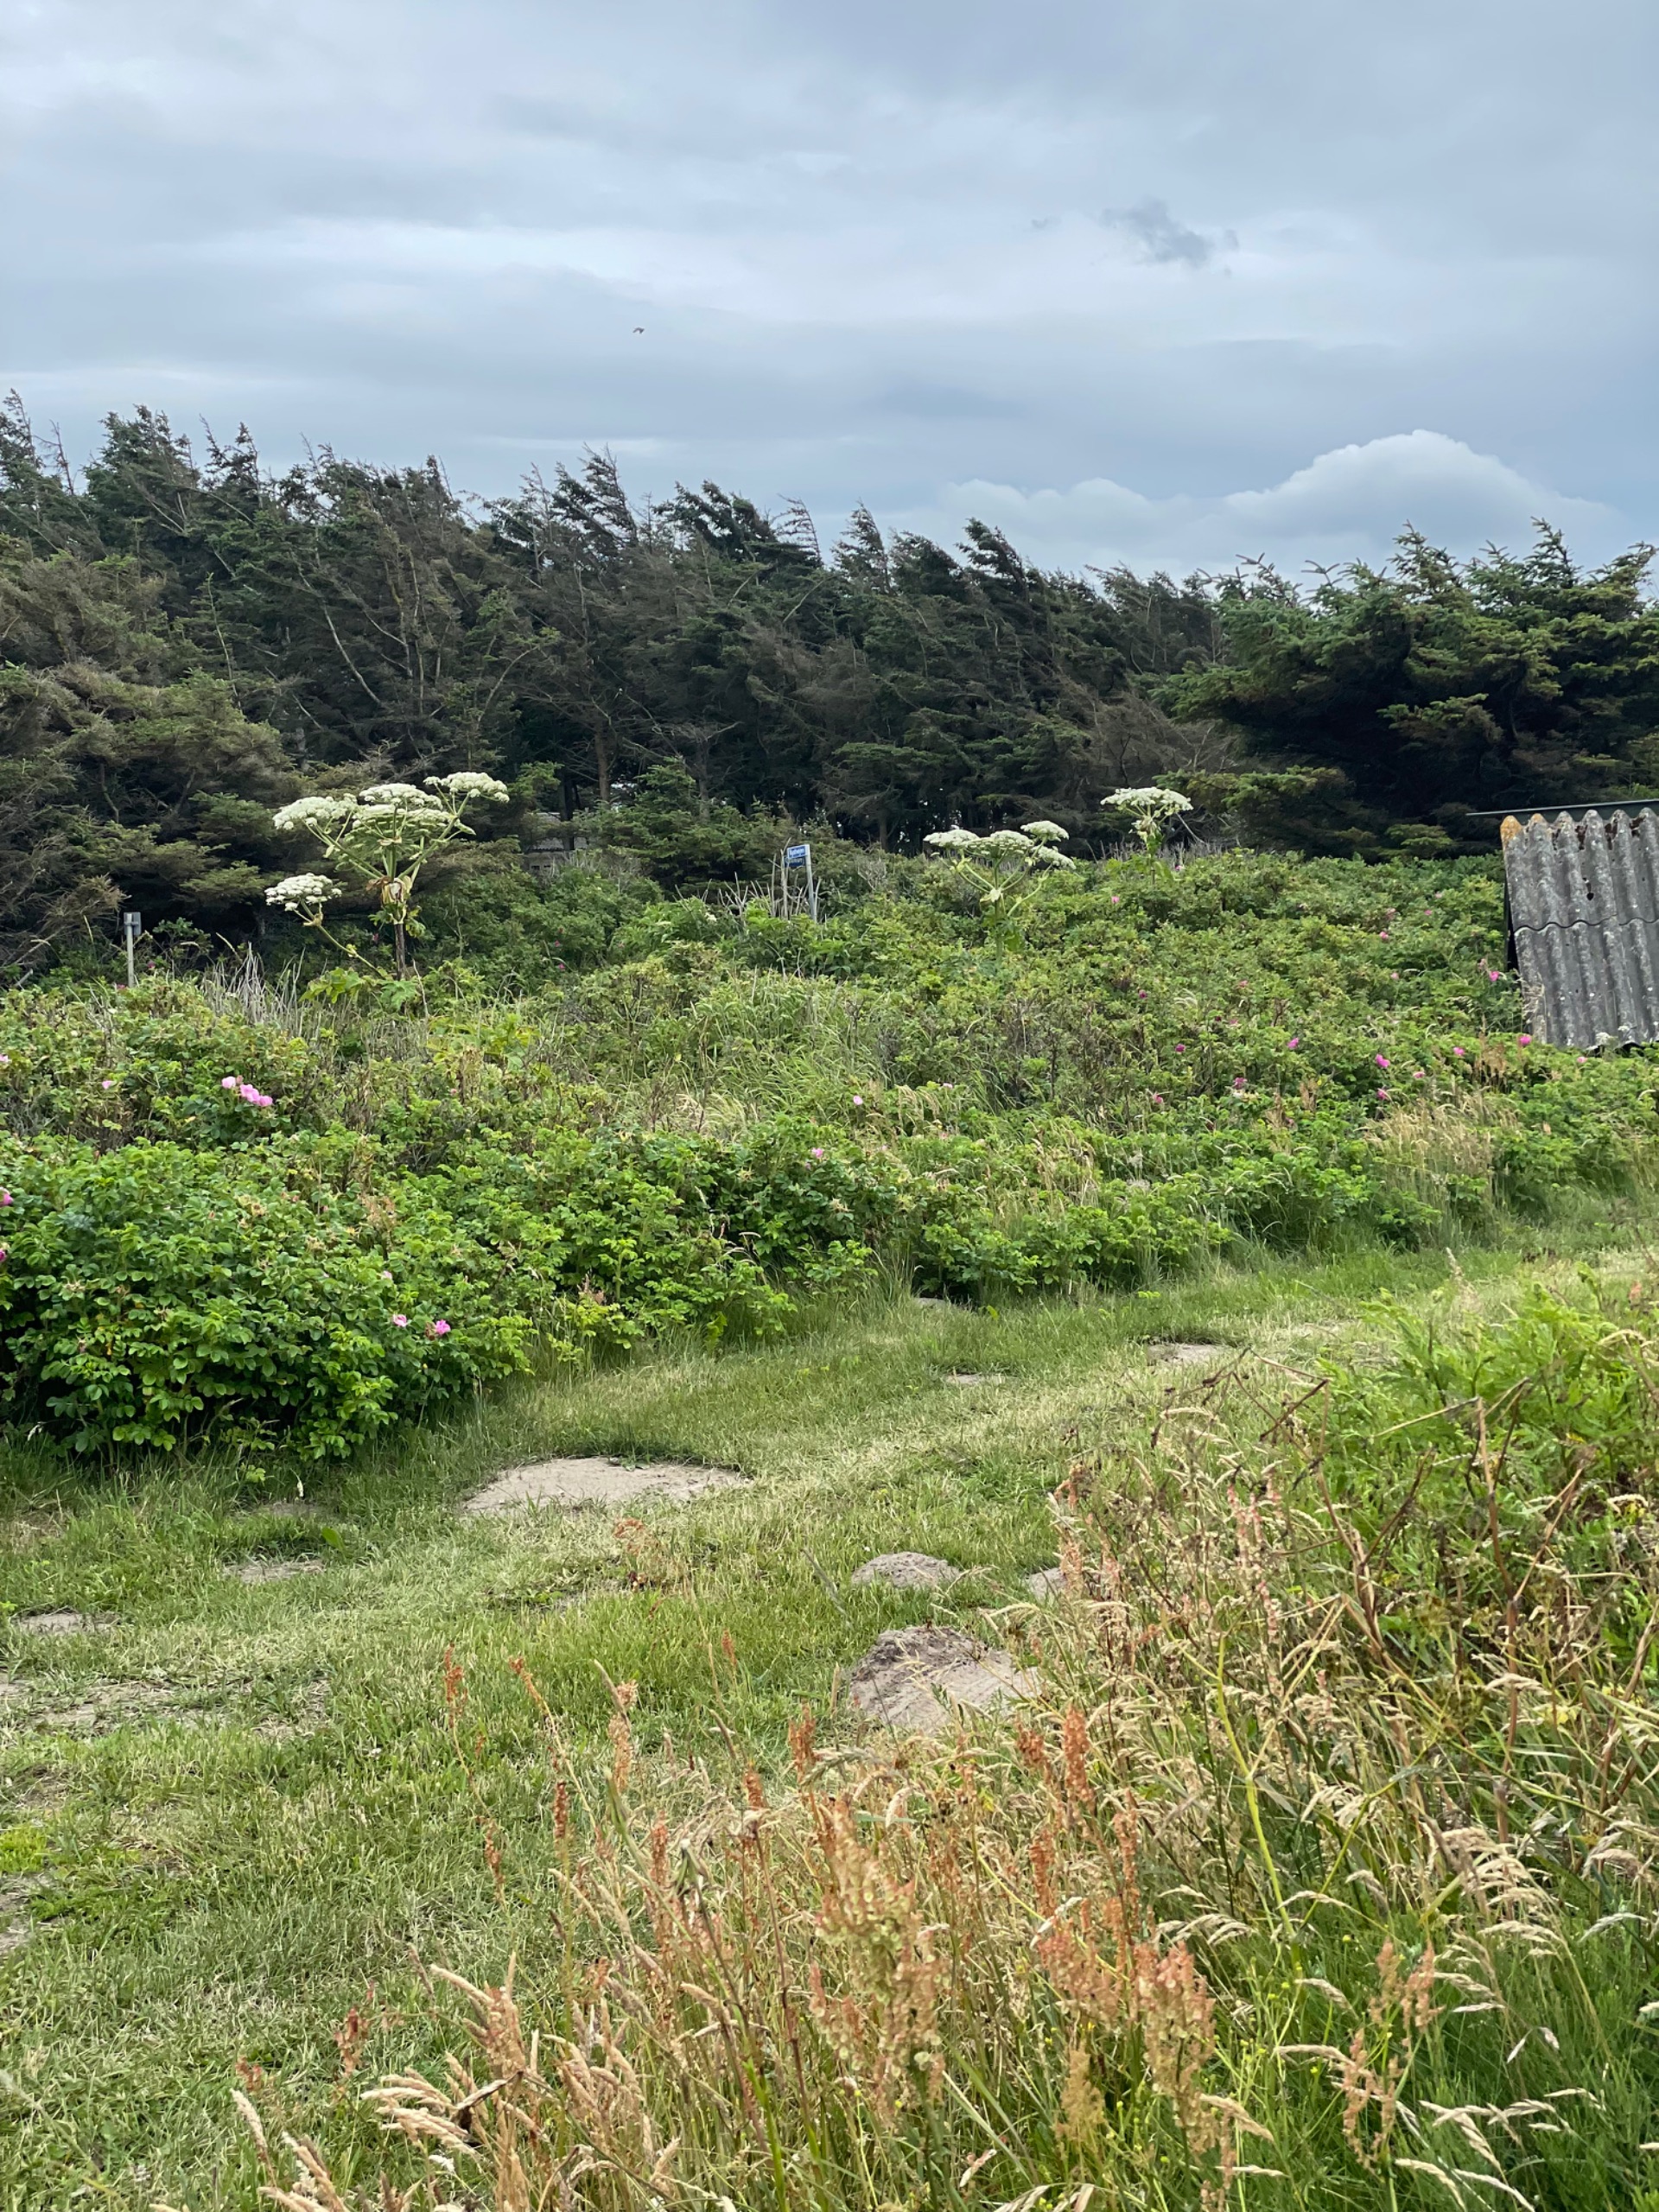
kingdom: Plantae
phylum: Tracheophyta
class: Magnoliopsida
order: Apiales
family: Apiaceae
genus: Heracleum
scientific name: Heracleum mantegazzianum
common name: Kæmpe-bjørneklo
